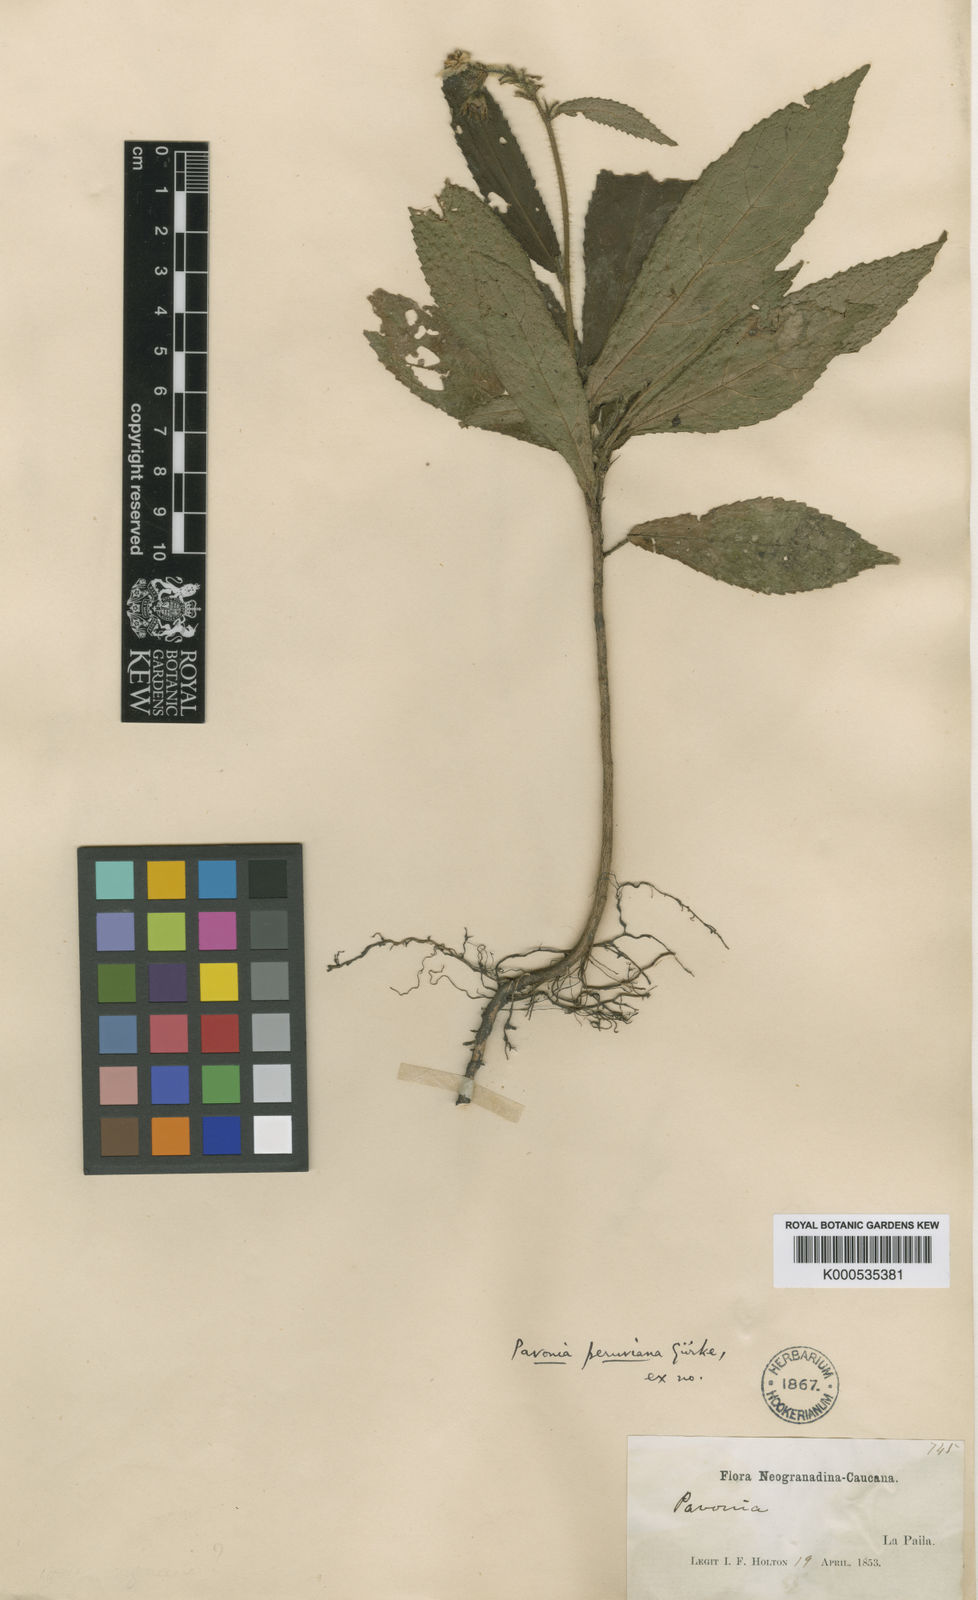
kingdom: Plantae
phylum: Tracheophyta
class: Magnoliopsida
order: Malvales
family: Malvaceae
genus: Pavonia
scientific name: Pavonia
